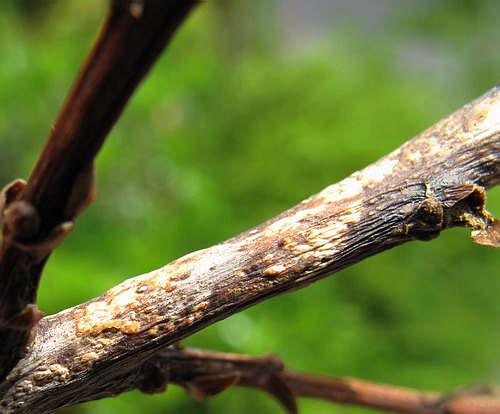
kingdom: Fungi
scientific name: Fungi
